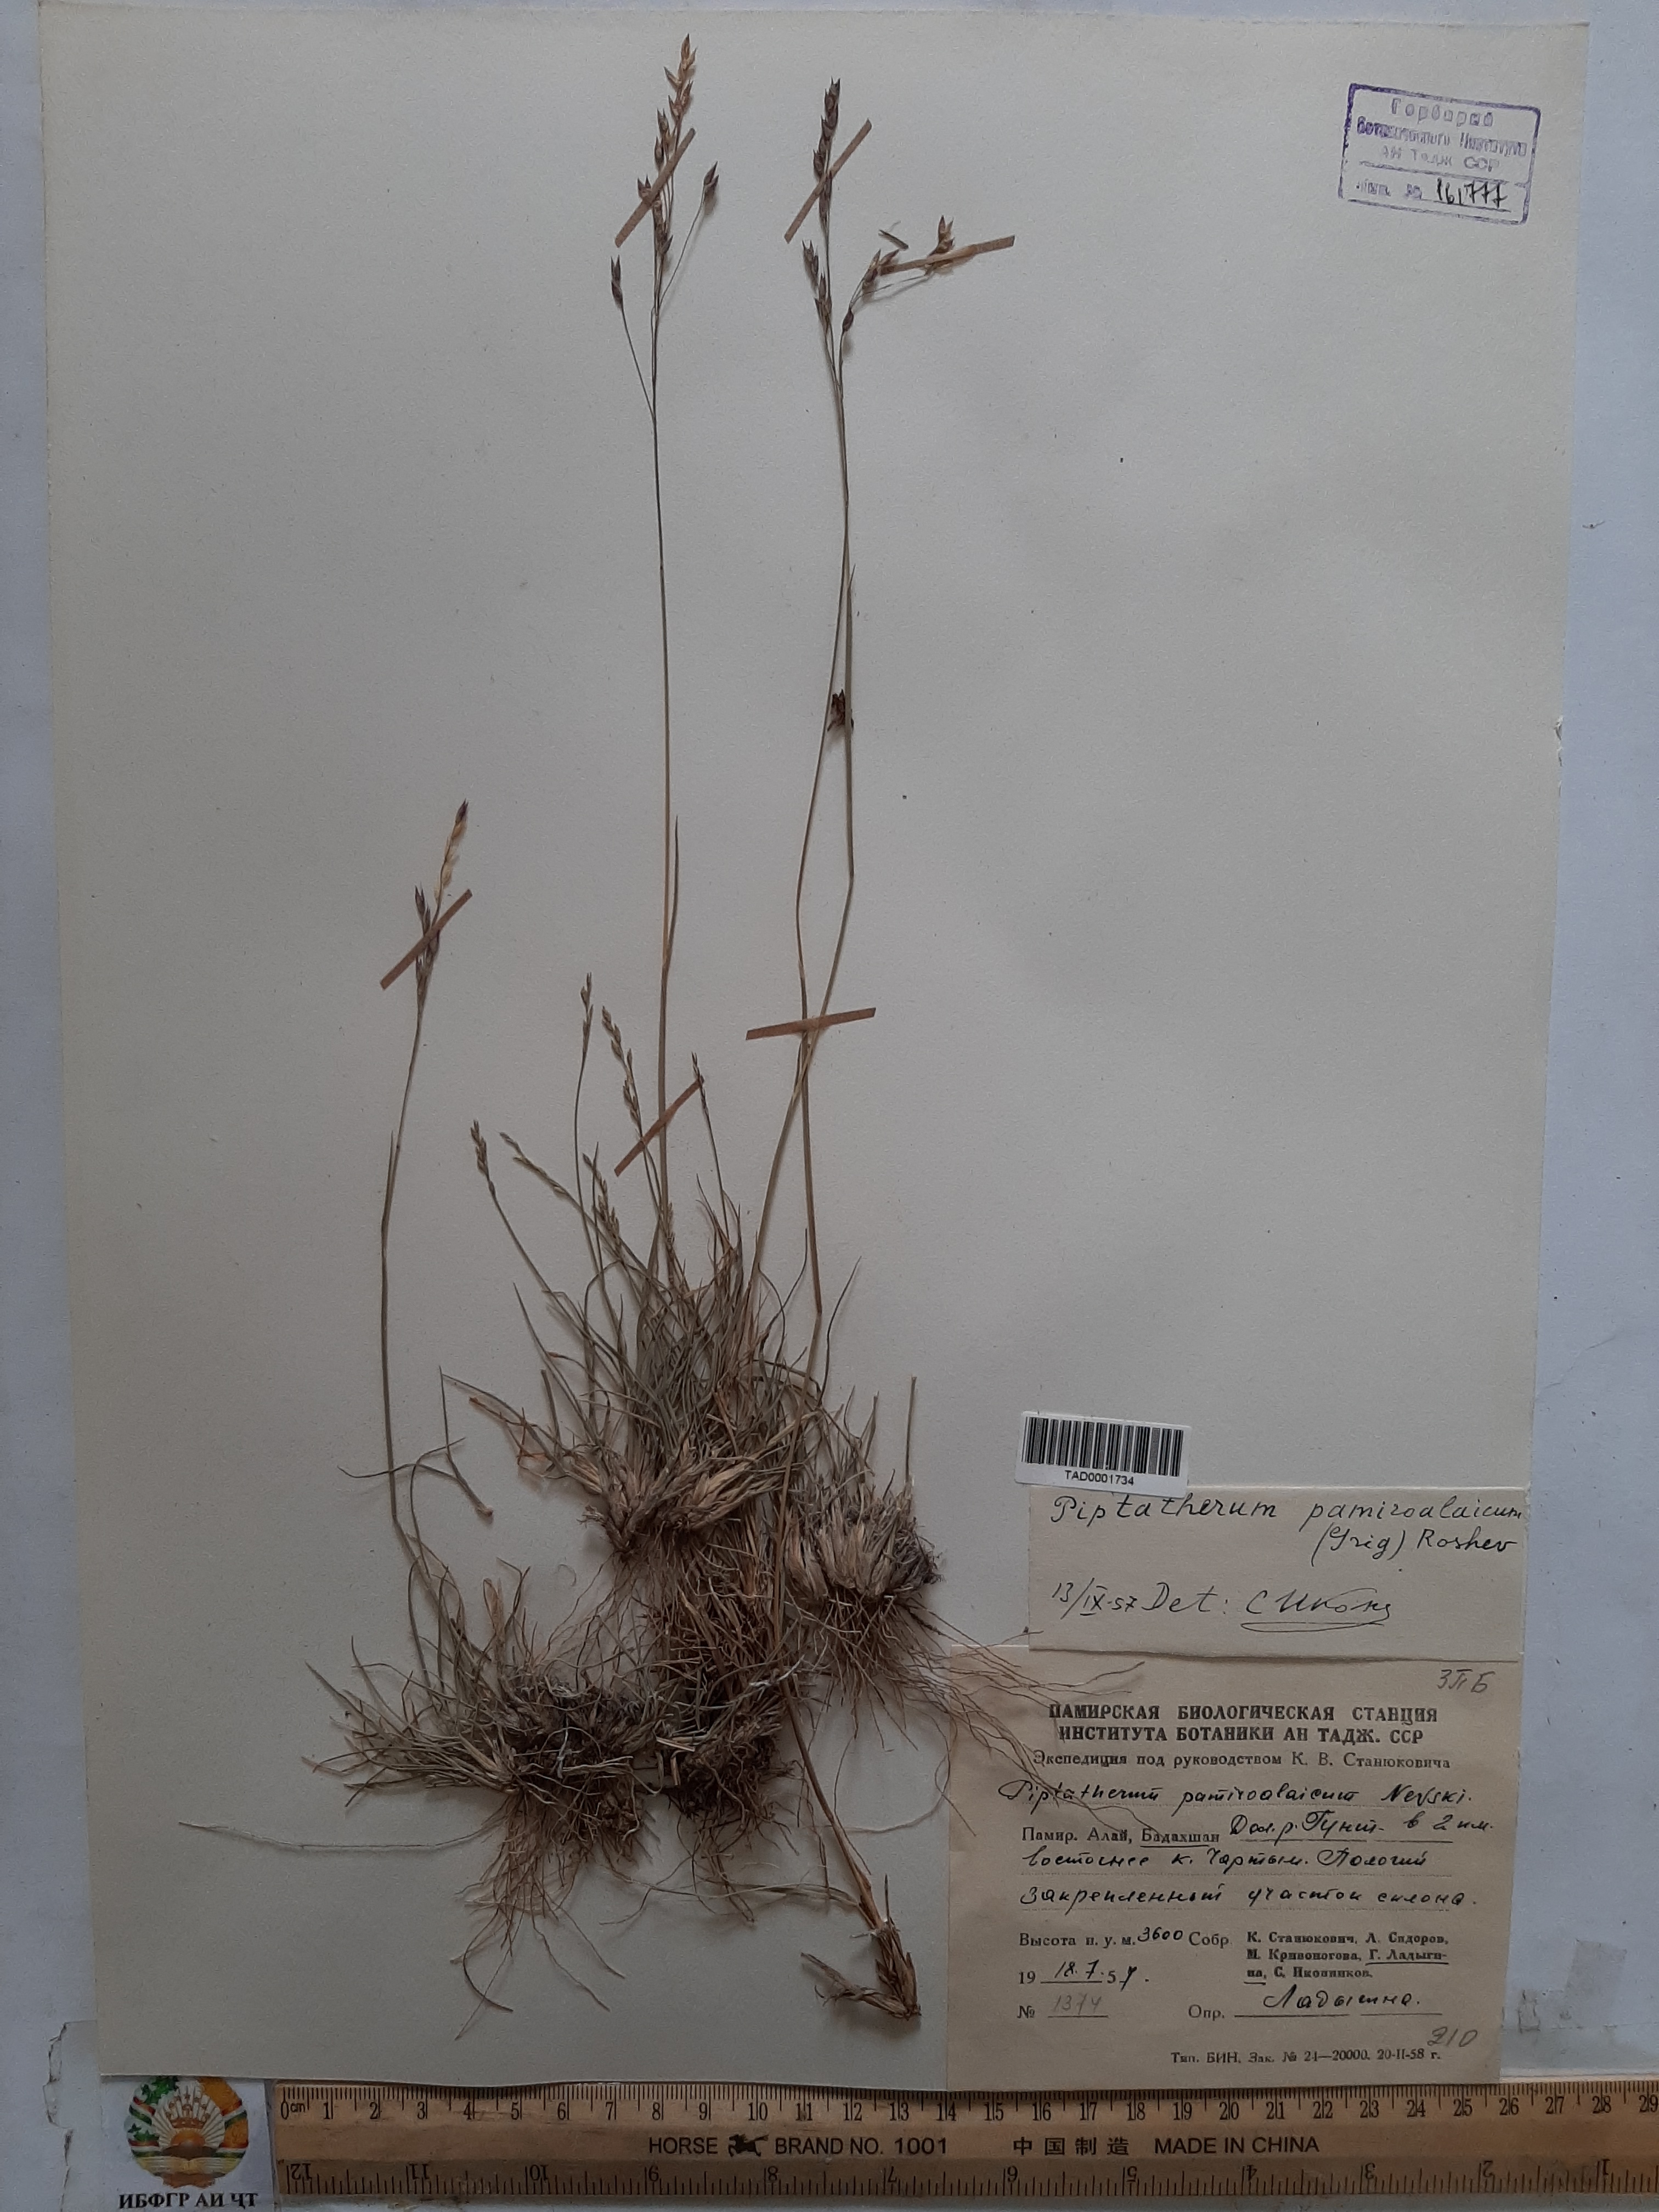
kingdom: Plantae
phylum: Tracheophyta
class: Liliopsida
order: Poales
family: Poaceae
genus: Piptatherum
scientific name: Piptatherum pamiralaicum
